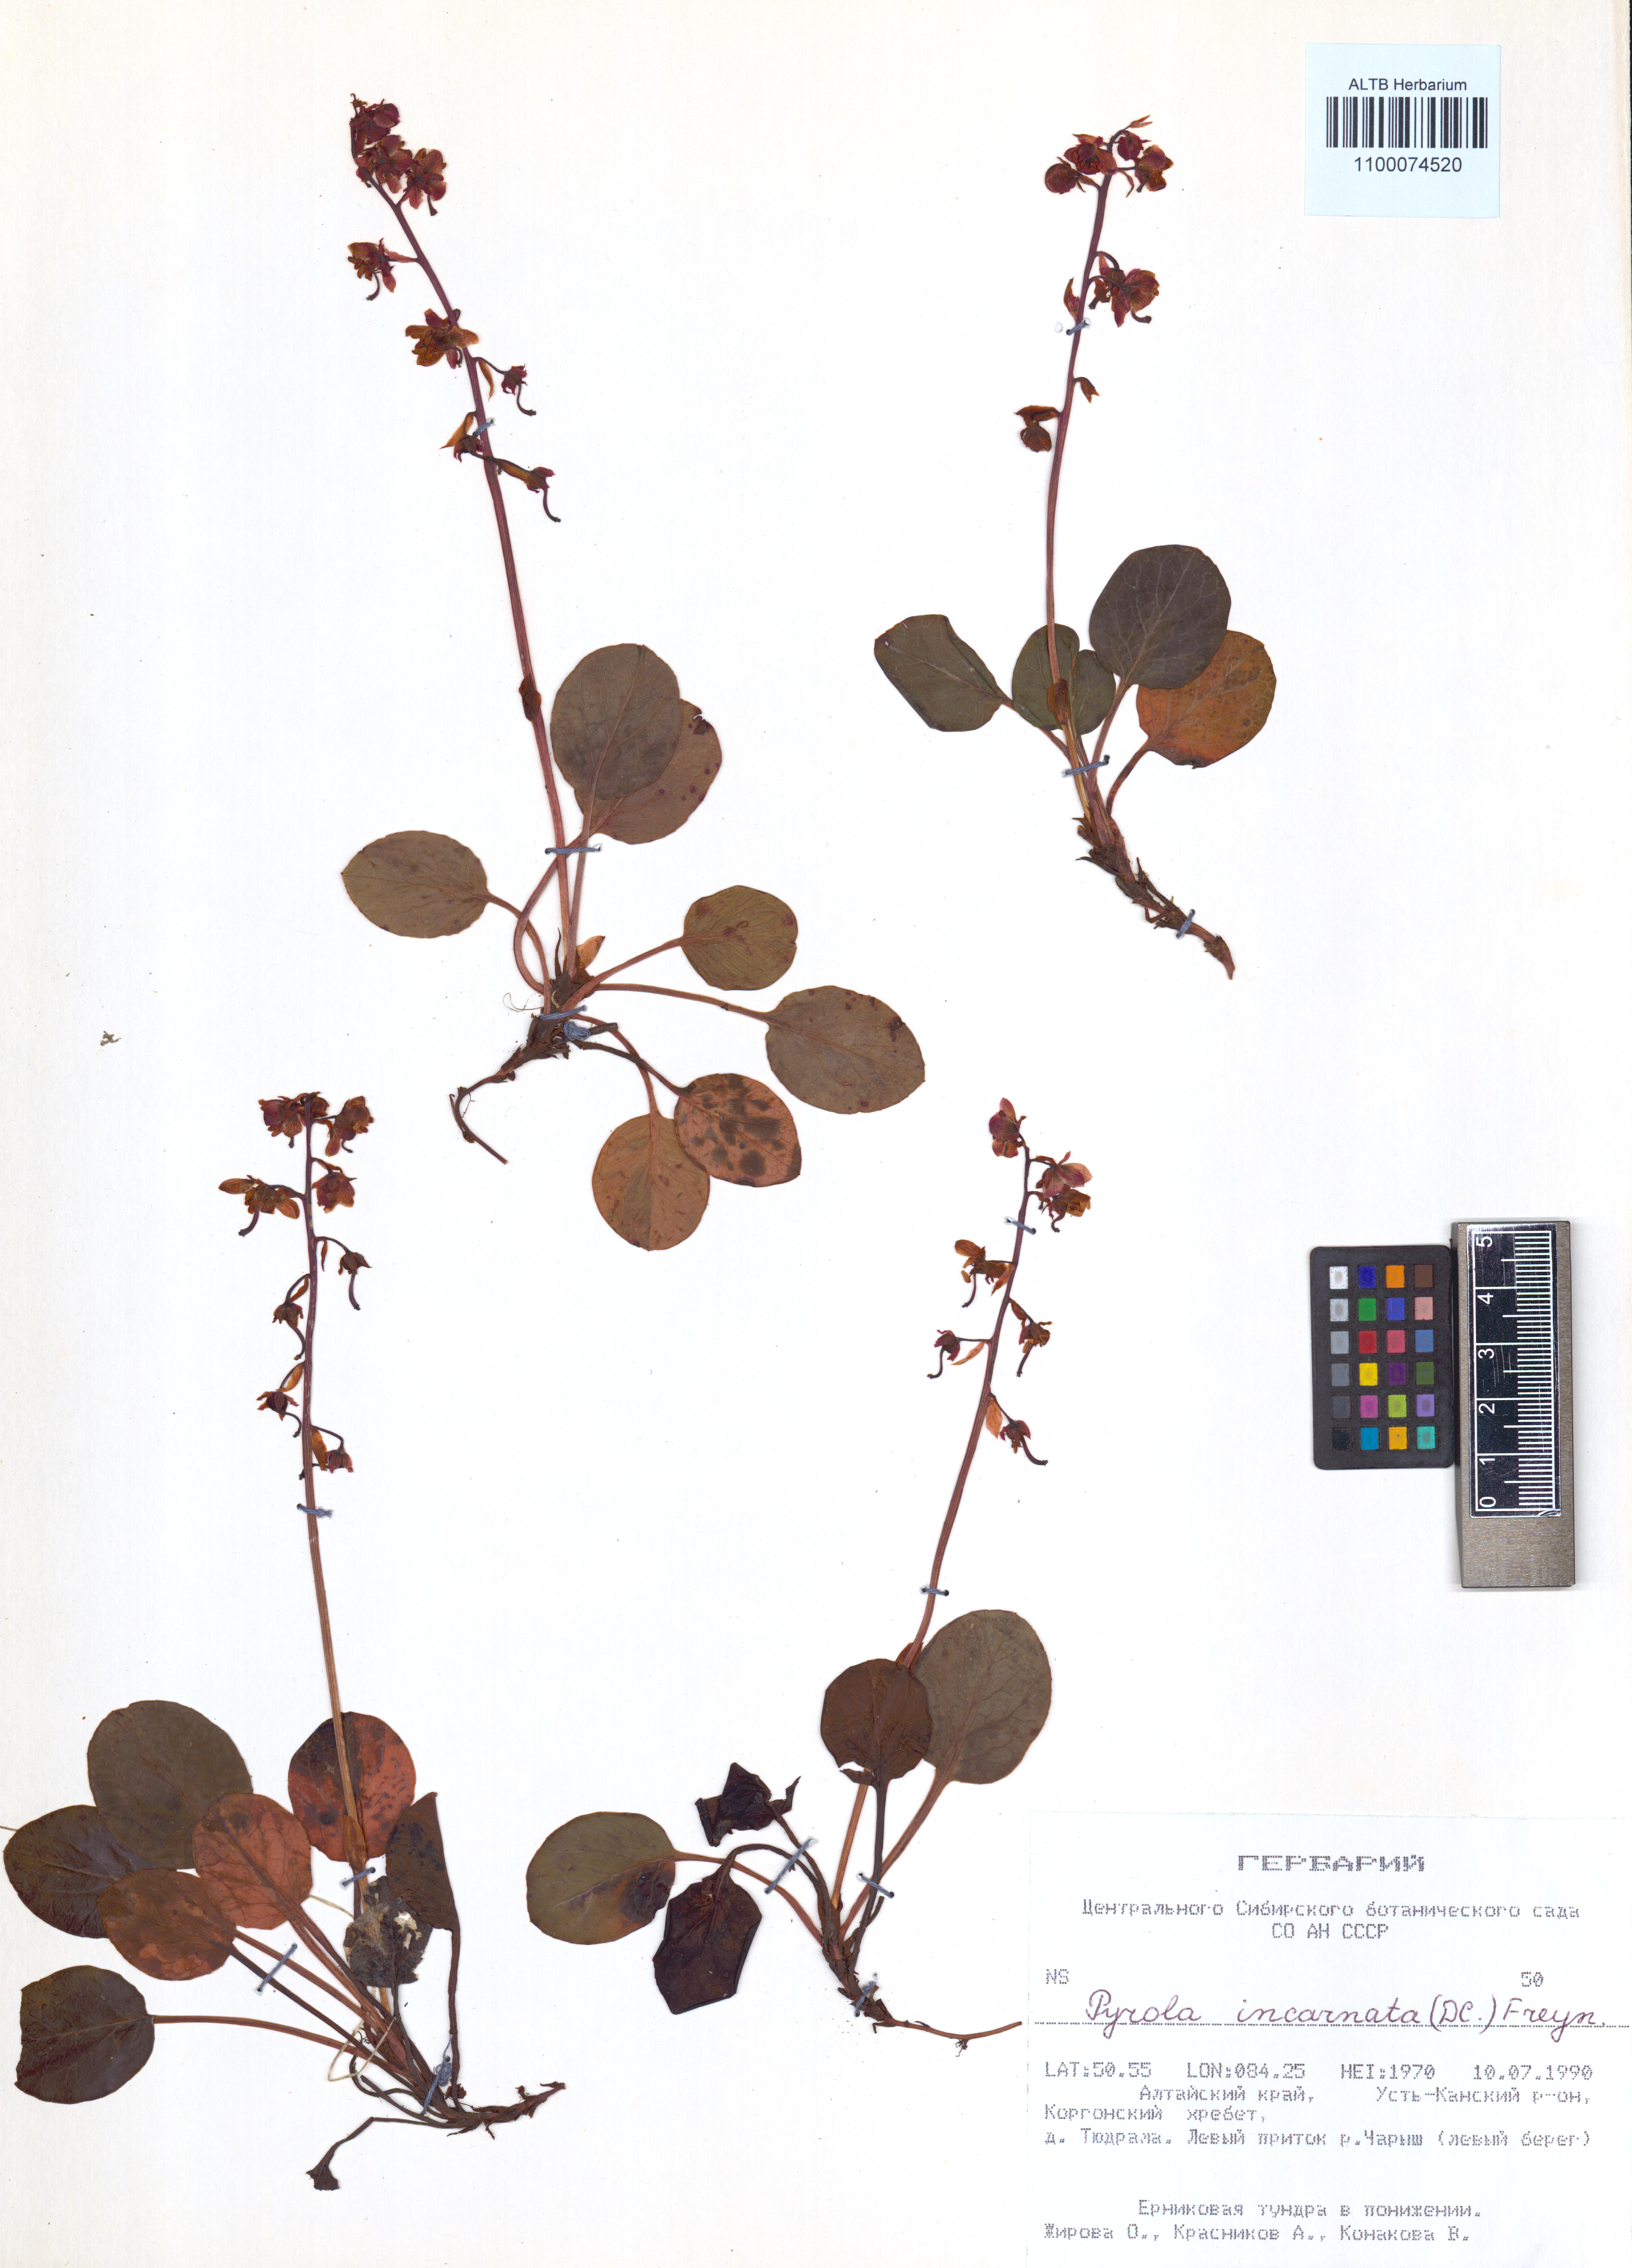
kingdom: Plantae
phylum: Tracheophyta
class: Magnoliopsida
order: Ericales
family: Ericaceae
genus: Pyrola
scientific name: Pyrola asarifolia
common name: Bog wintergreen
